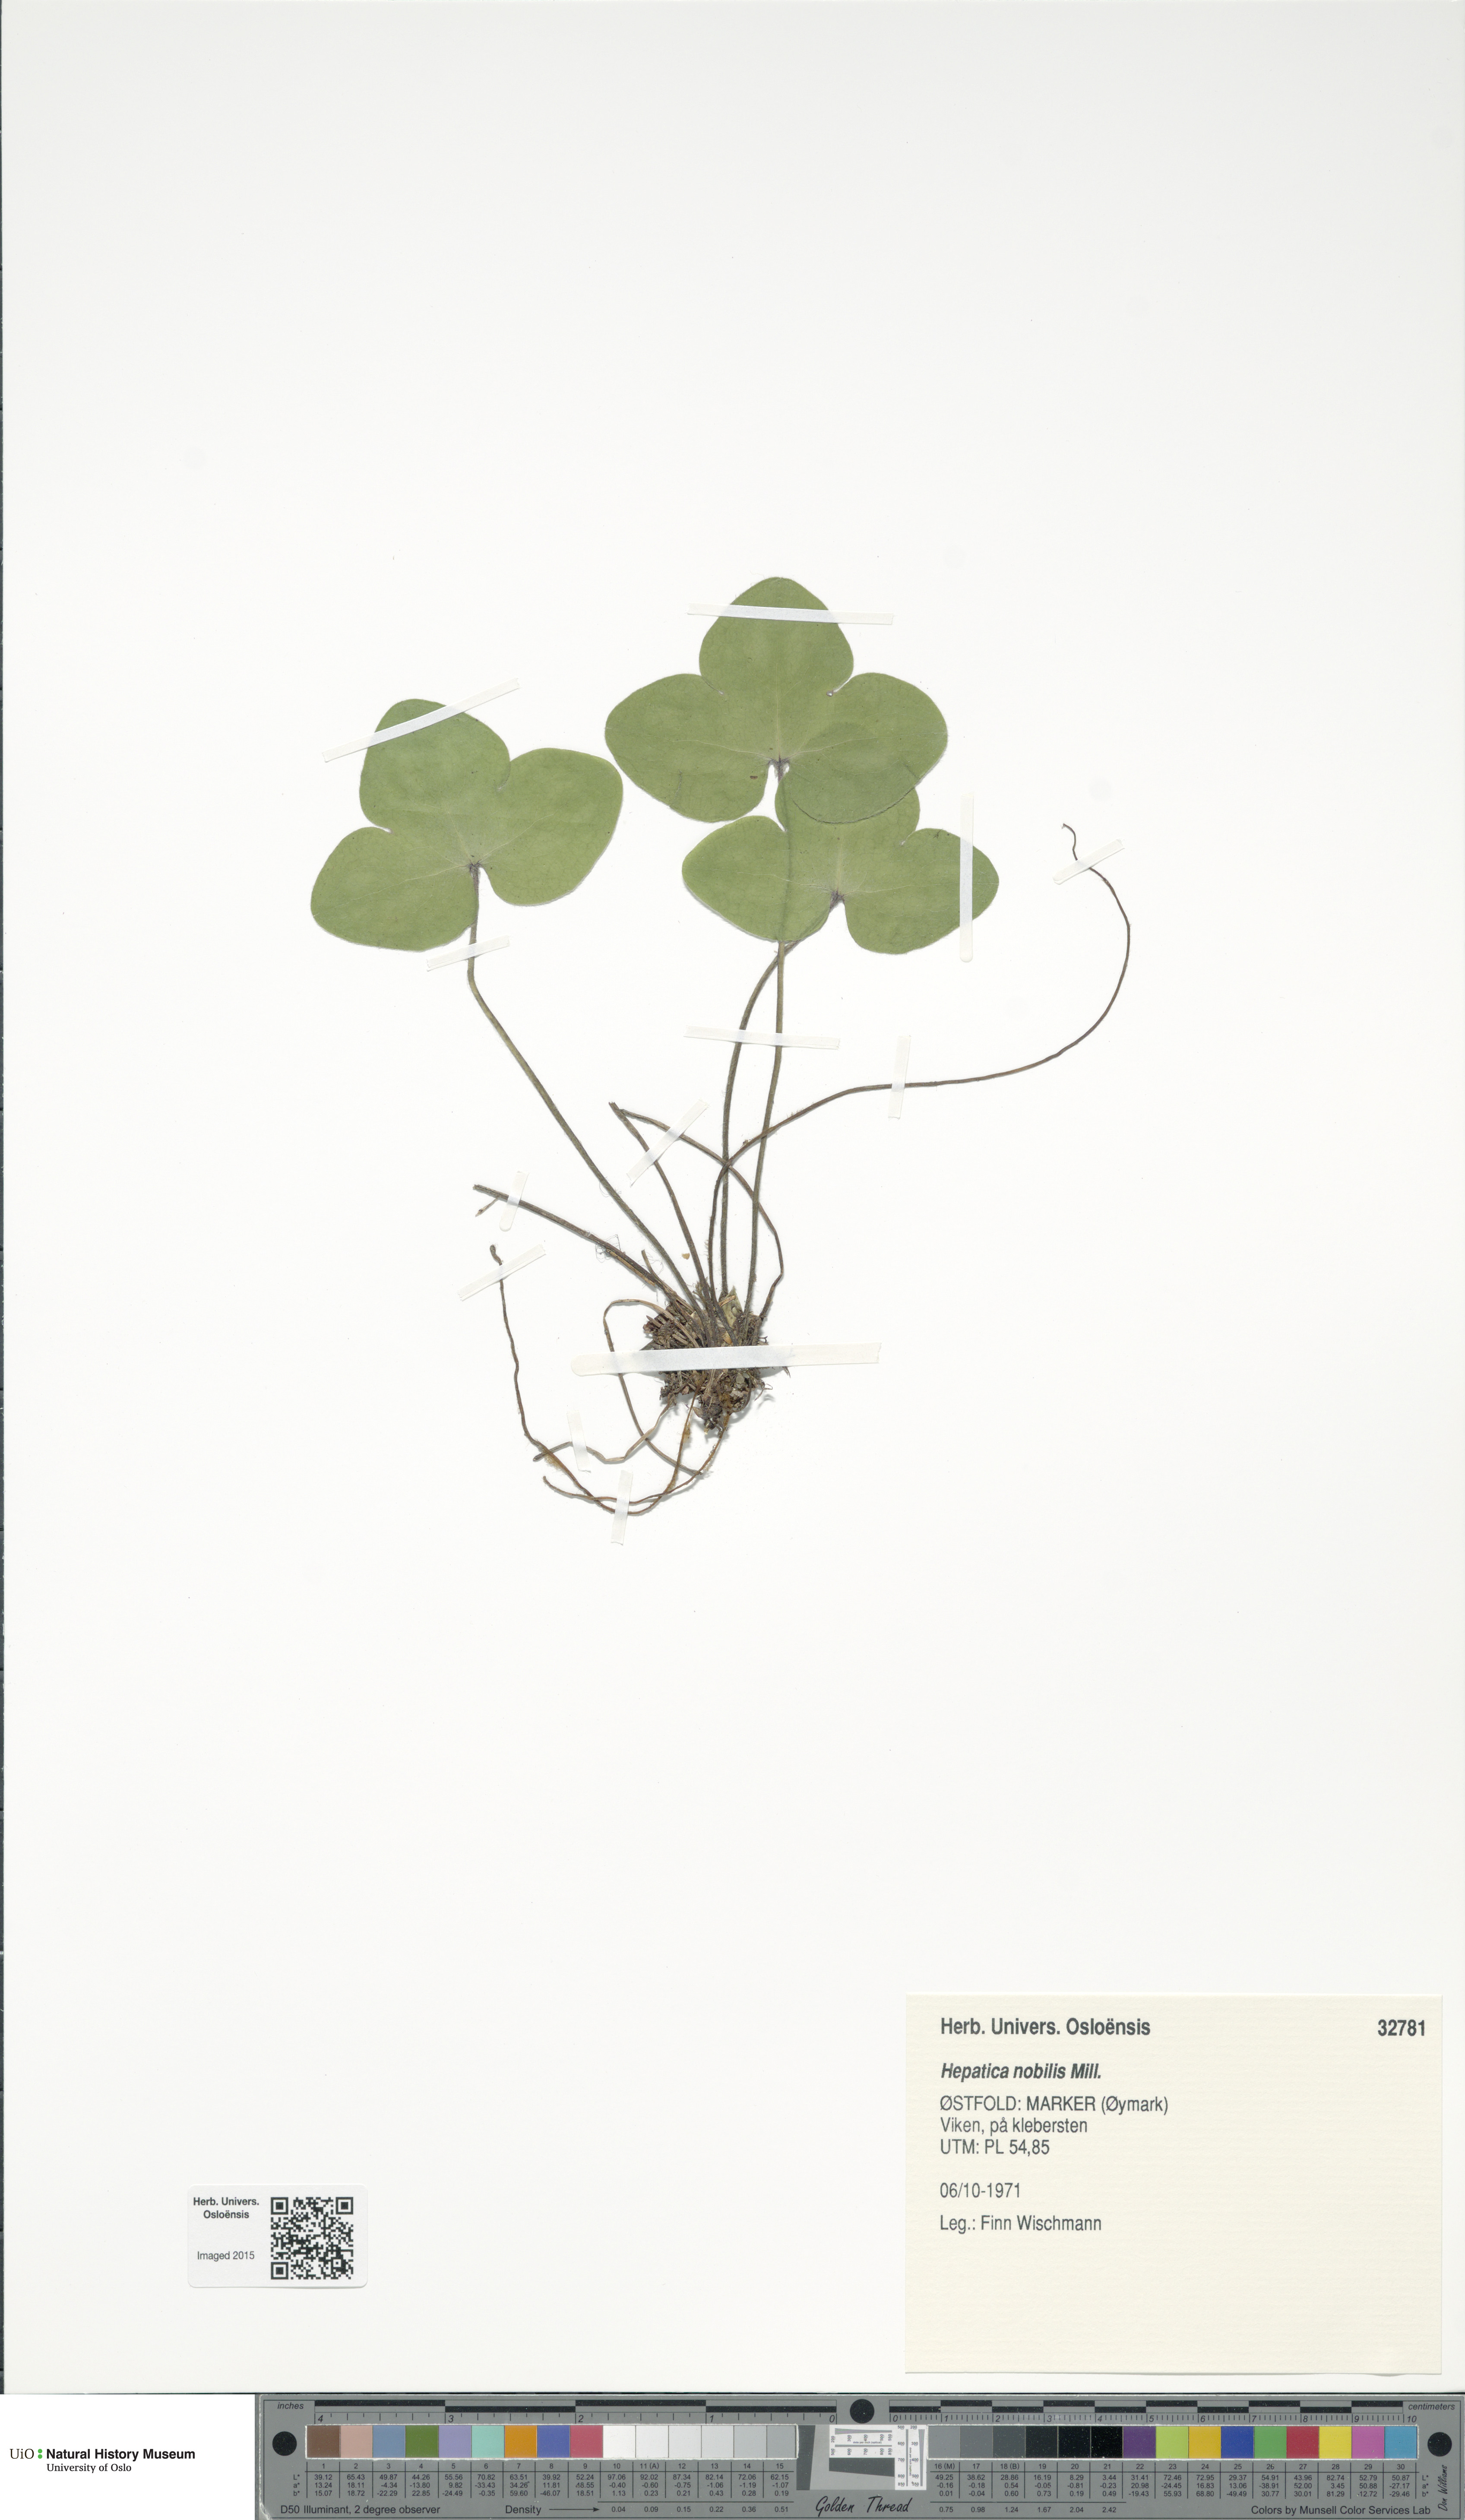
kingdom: Plantae
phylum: Tracheophyta
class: Magnoliopsida
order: Ranunculales
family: Ranunculaceae
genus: Hepatica
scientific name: Hepatica nobilis
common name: Liverleaf
